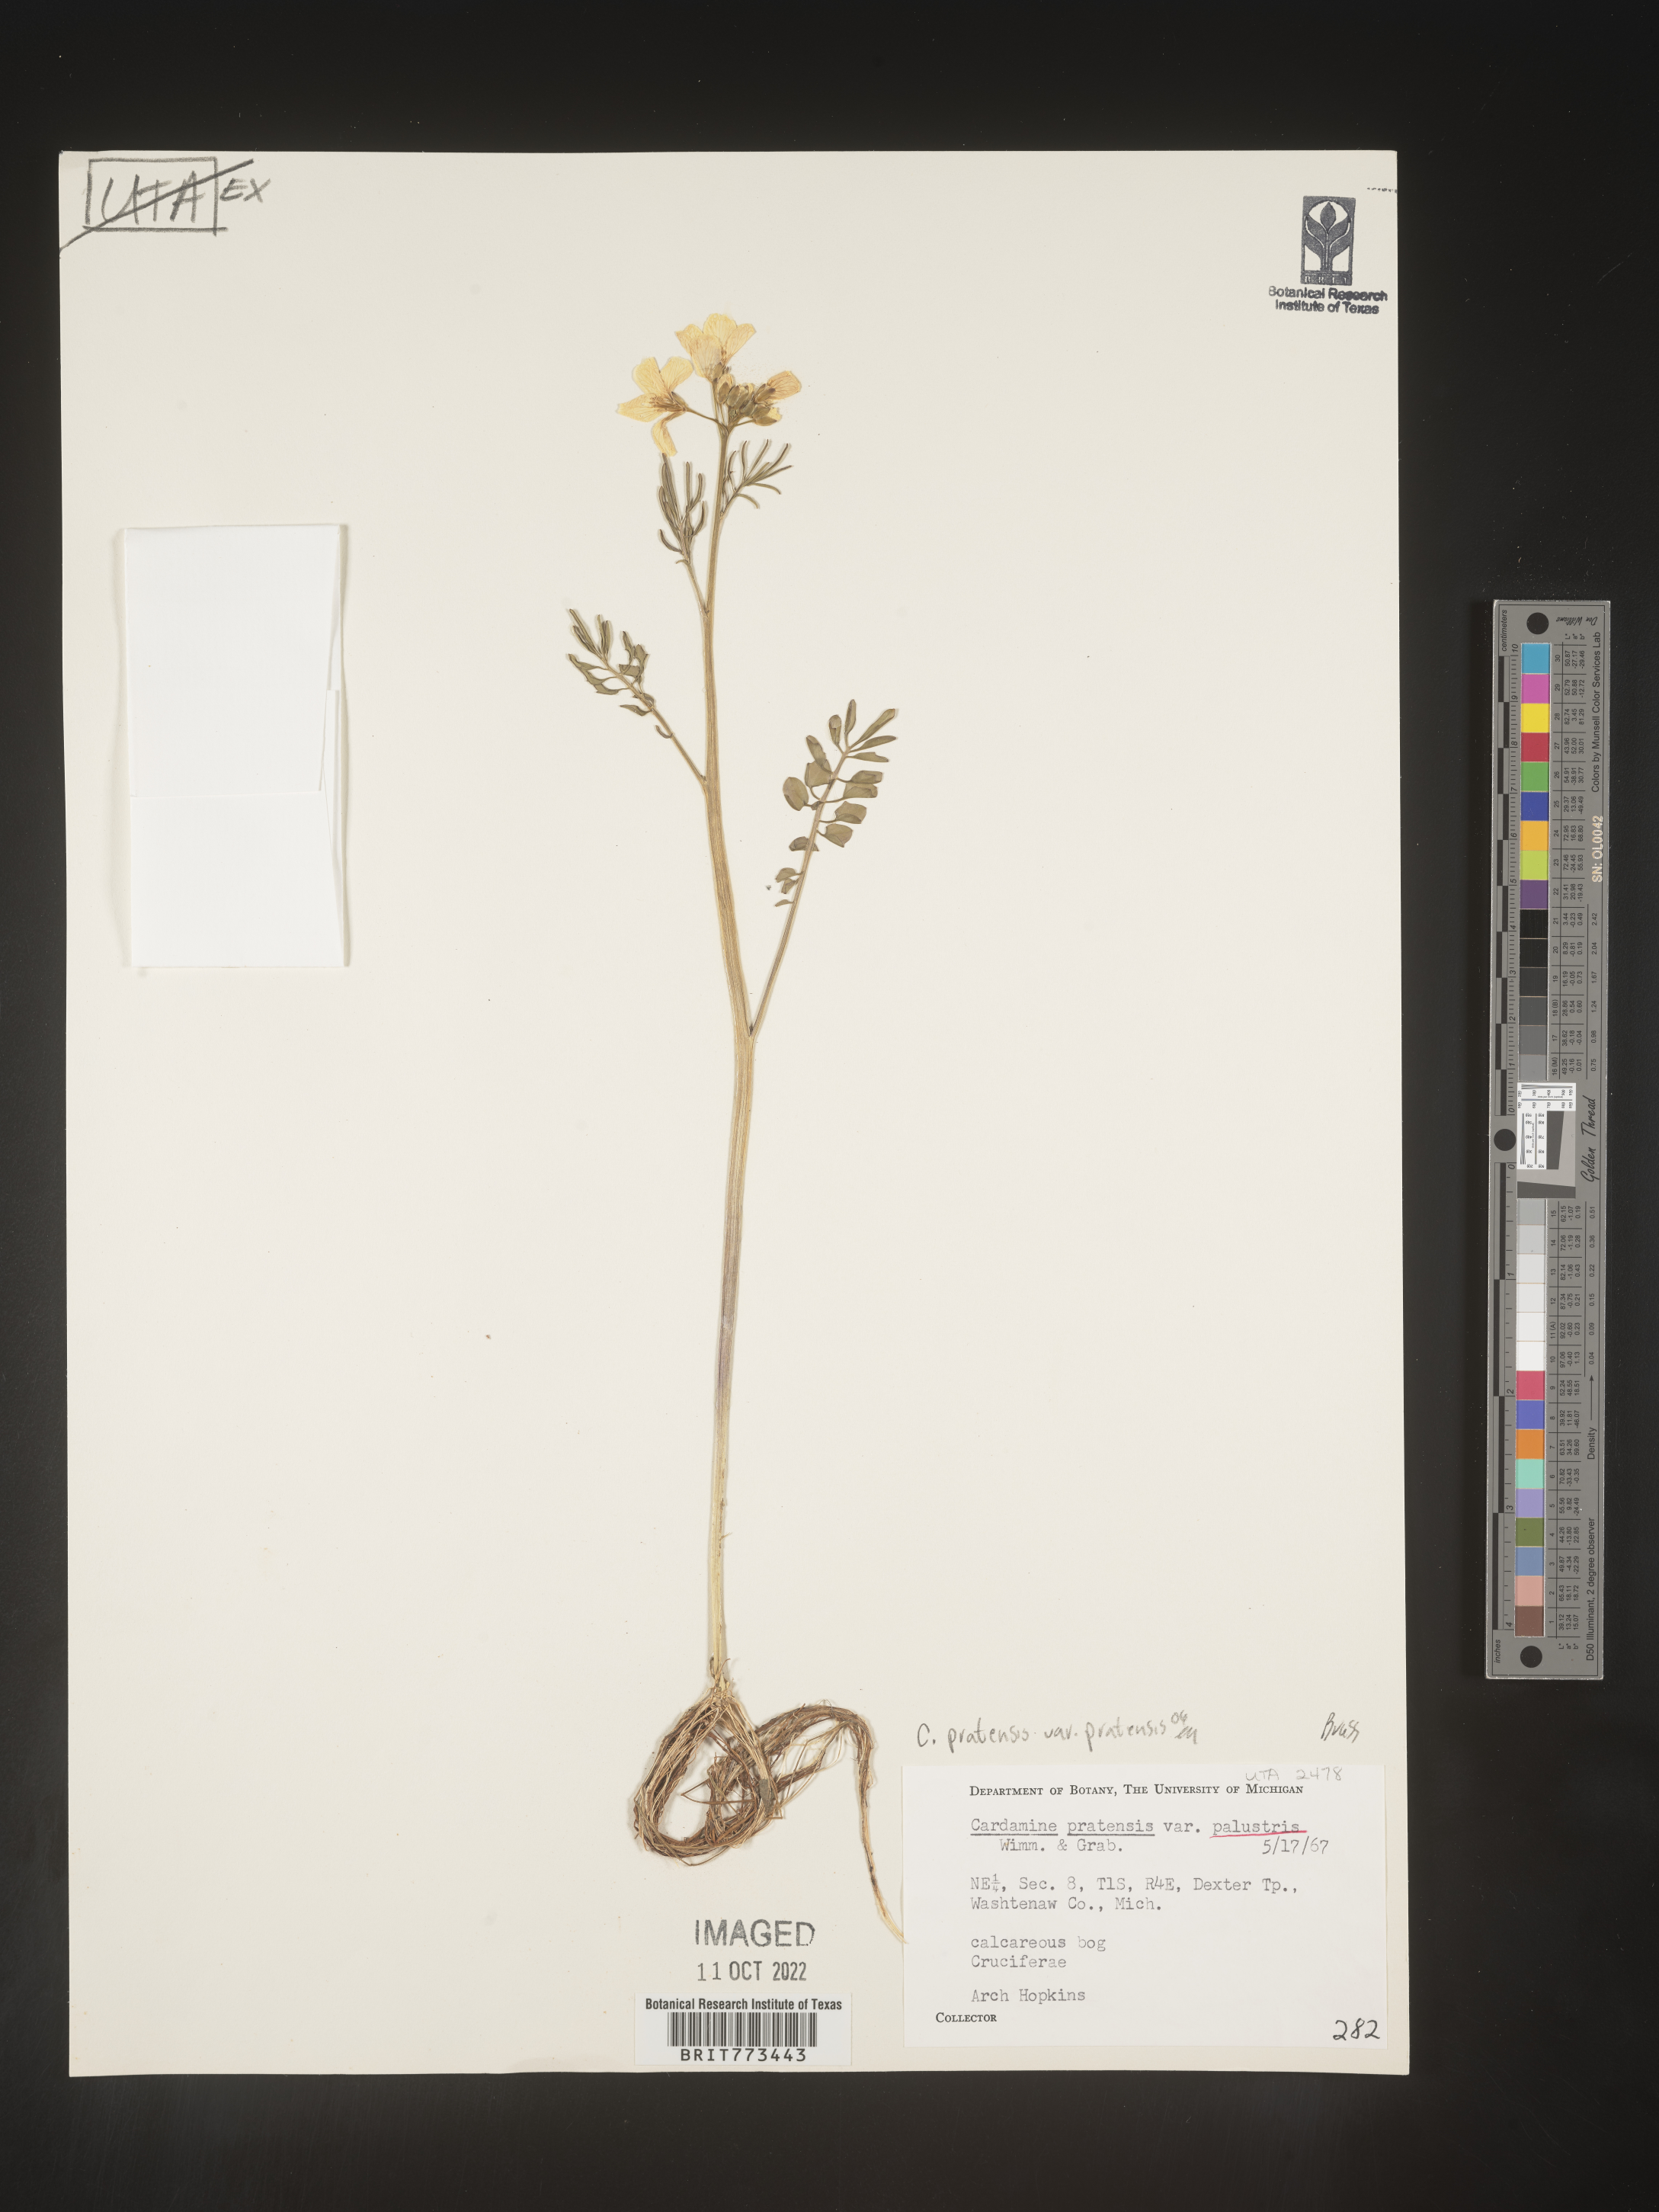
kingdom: Plantae
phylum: Tracheophyta
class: Magnoliopsida
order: Brassicales
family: Brassicaceae
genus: Cardamine
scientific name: Cardamine
